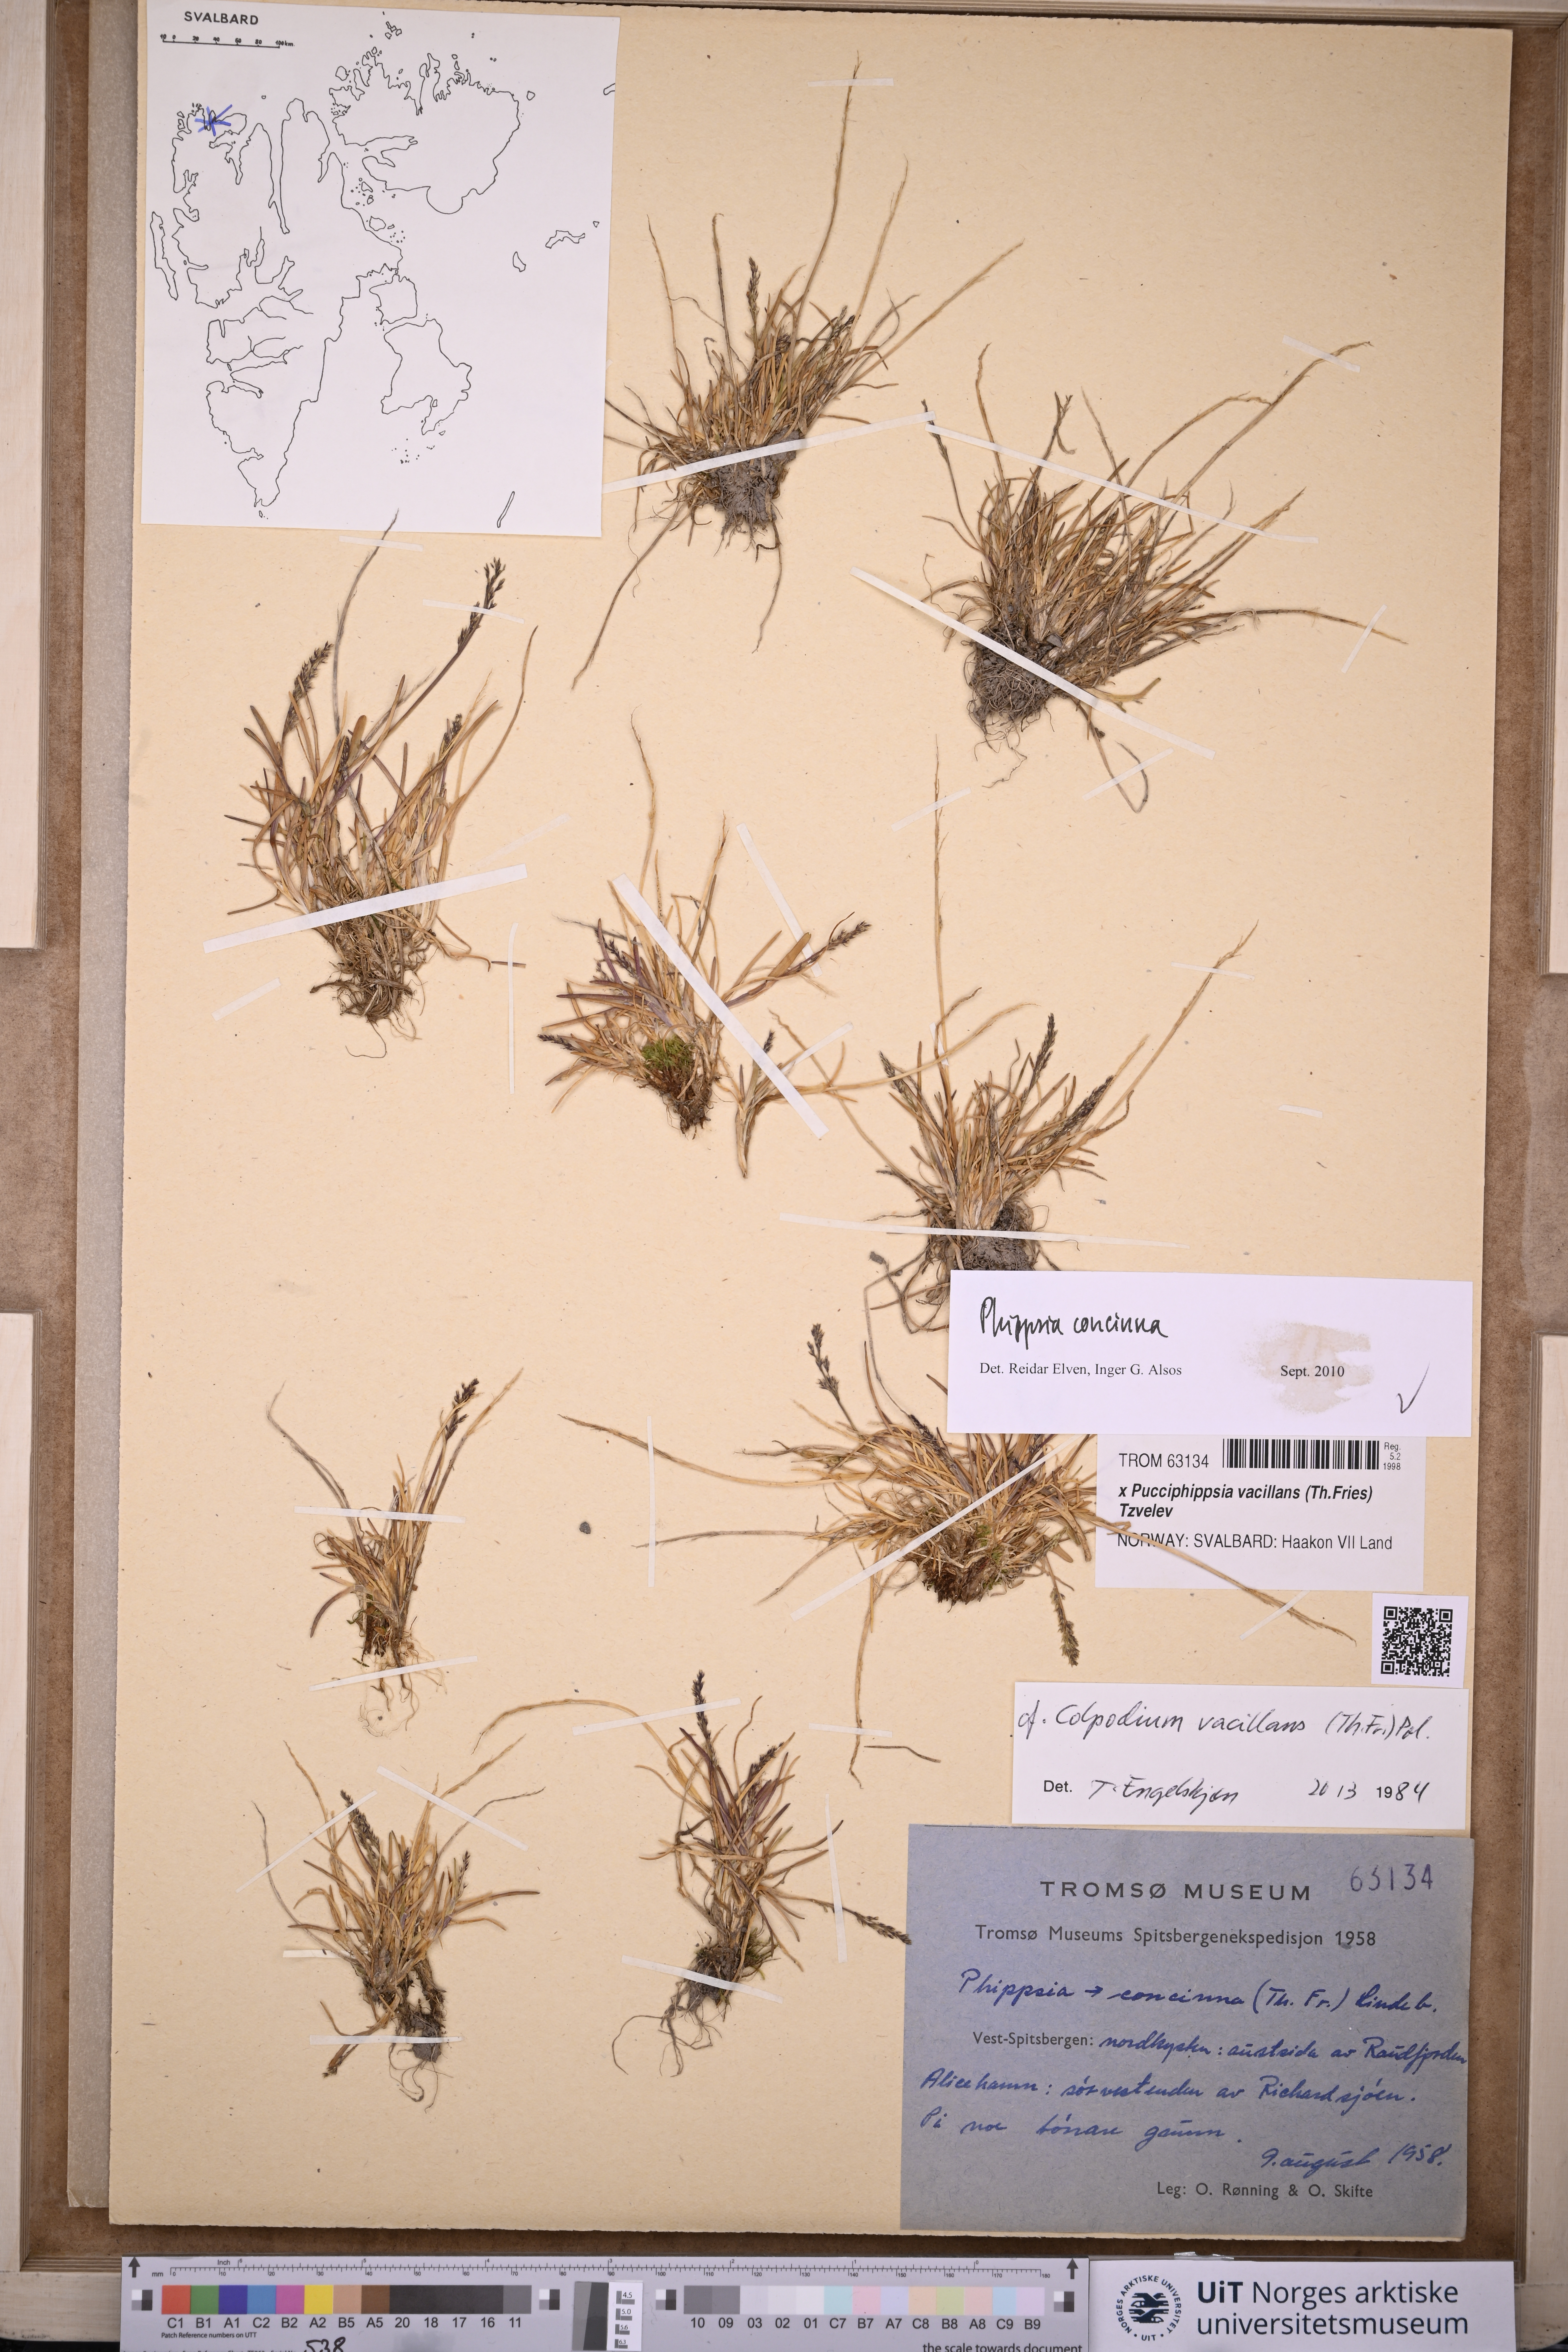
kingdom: Plantae
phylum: Tracheophyta
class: Liliopsida
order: Poales
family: Poaceae
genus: Phippsia
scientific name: Phippsia concinna
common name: Snowgrass
